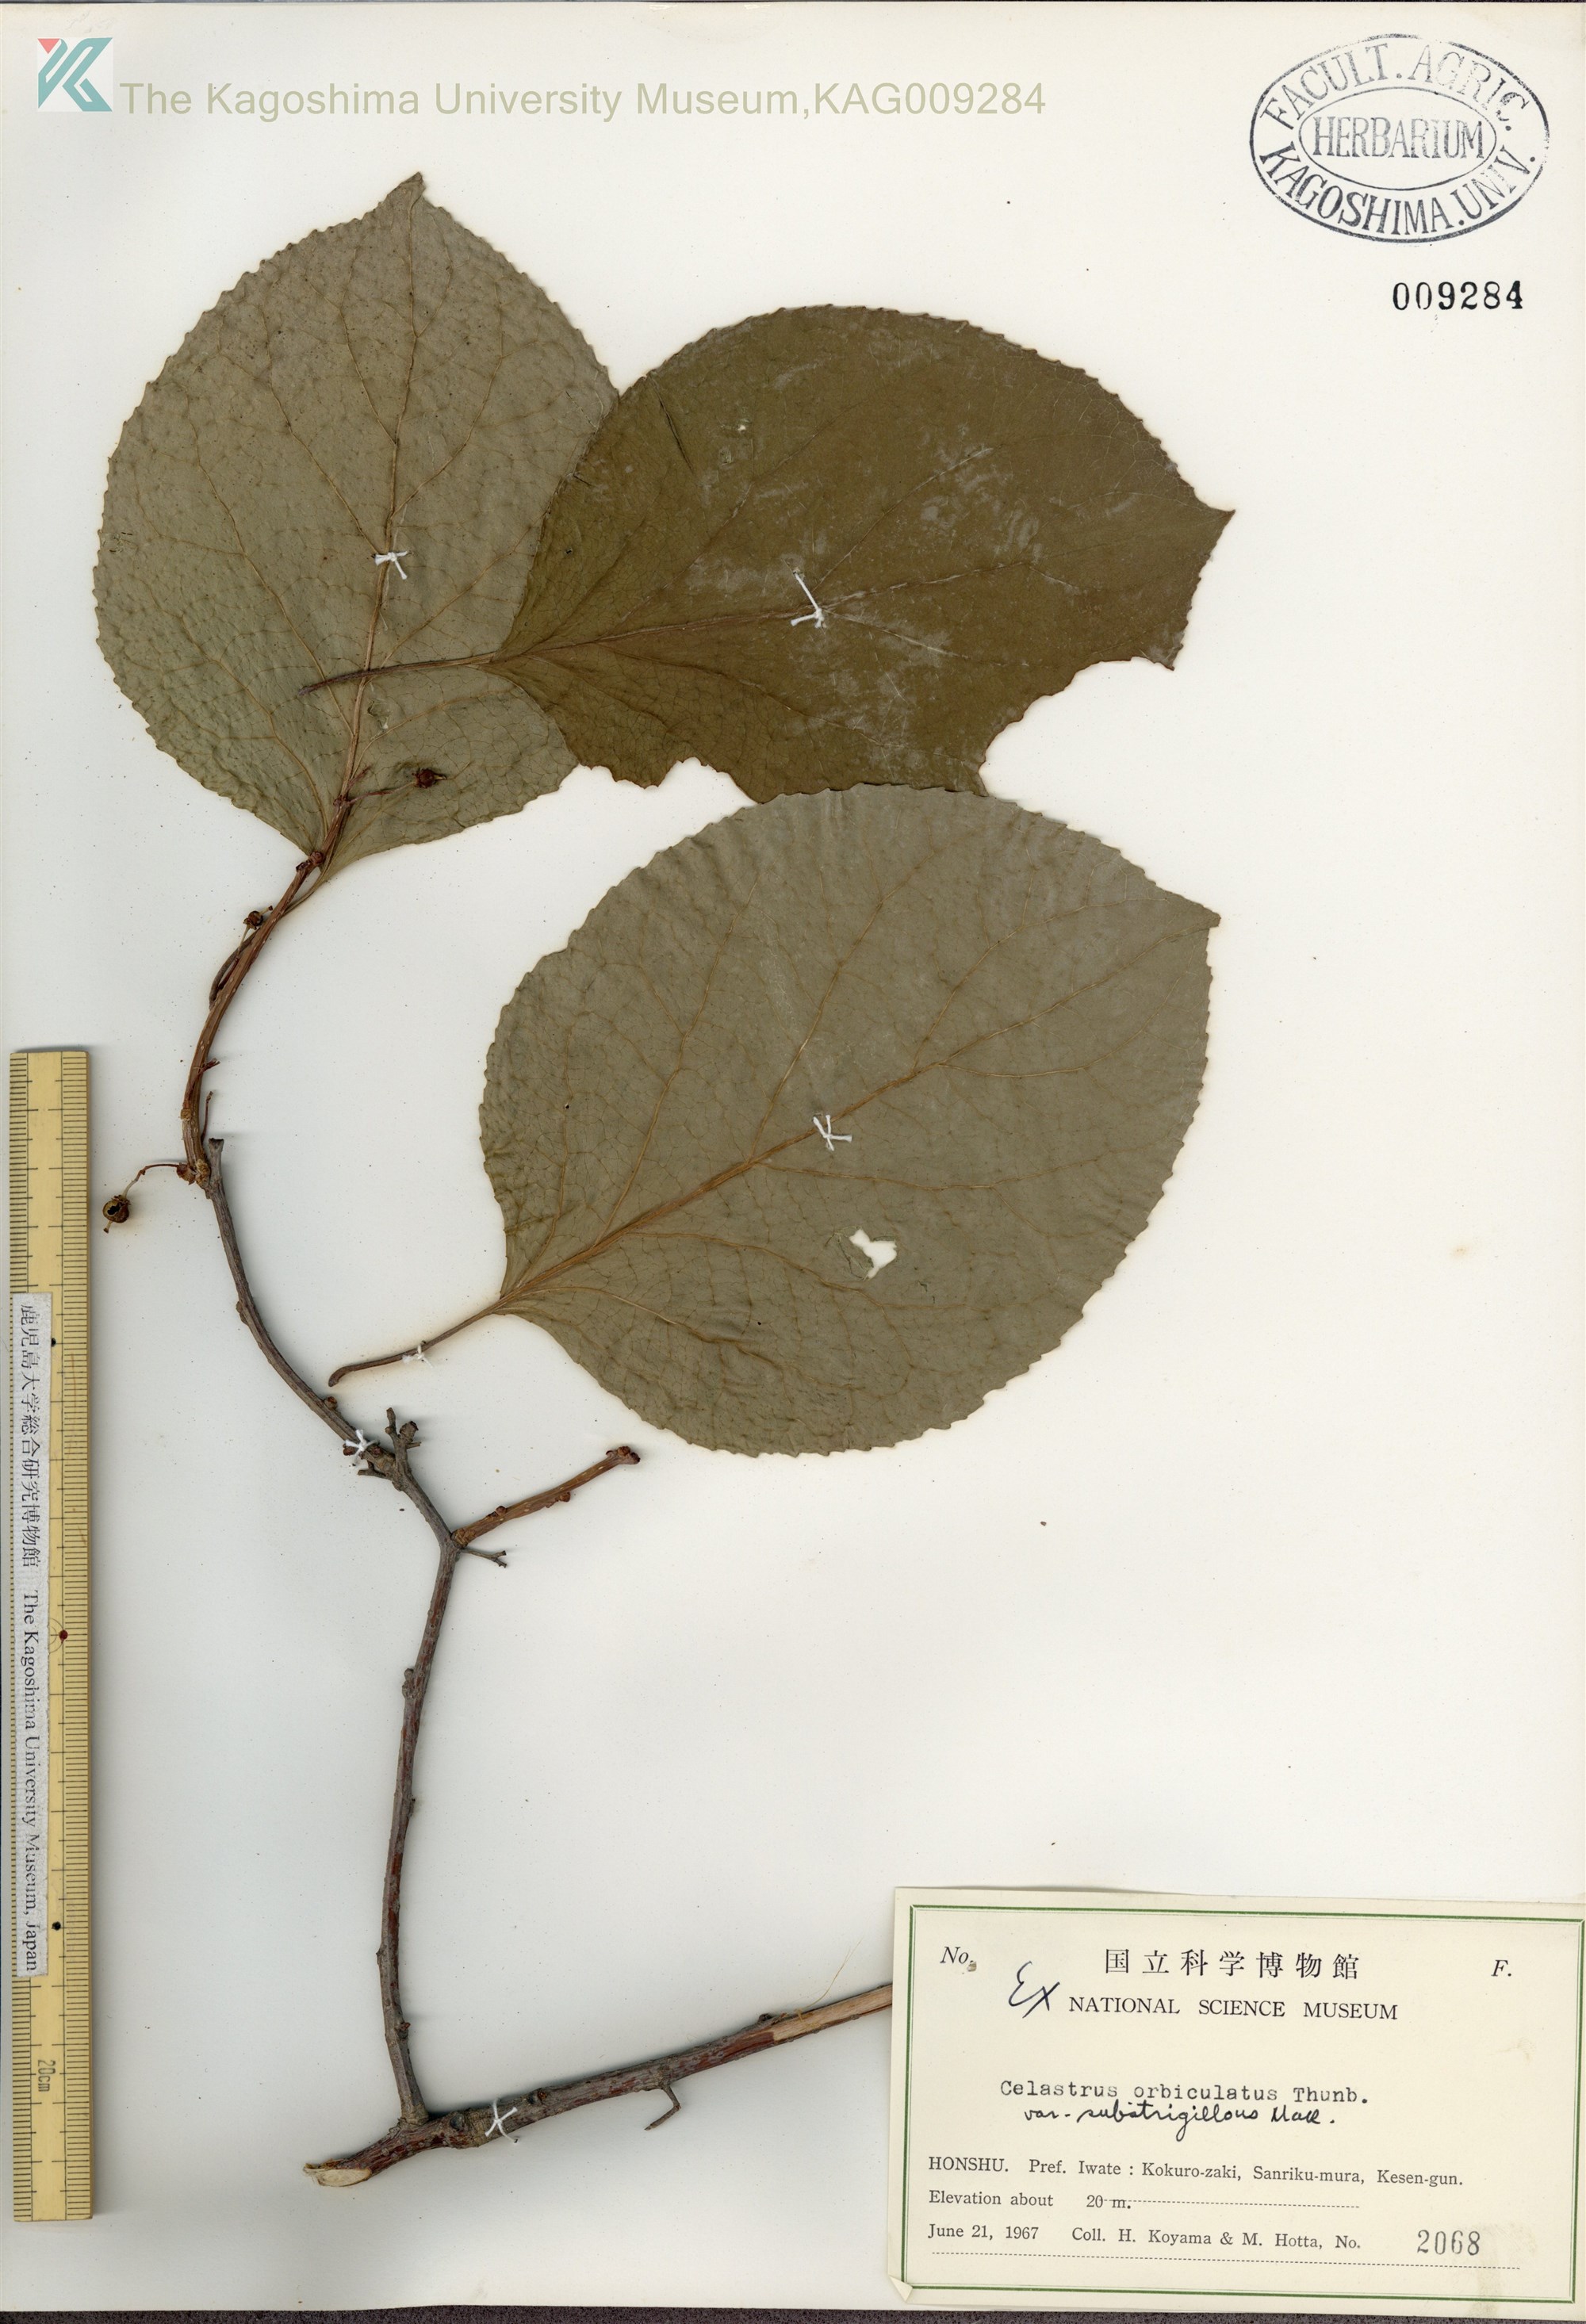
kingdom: Plantae
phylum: Tracheophyta
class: Magnoliopsida
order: Celastrales
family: Celastraceae
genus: Celastrus
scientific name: Celastrus orbiculatus
